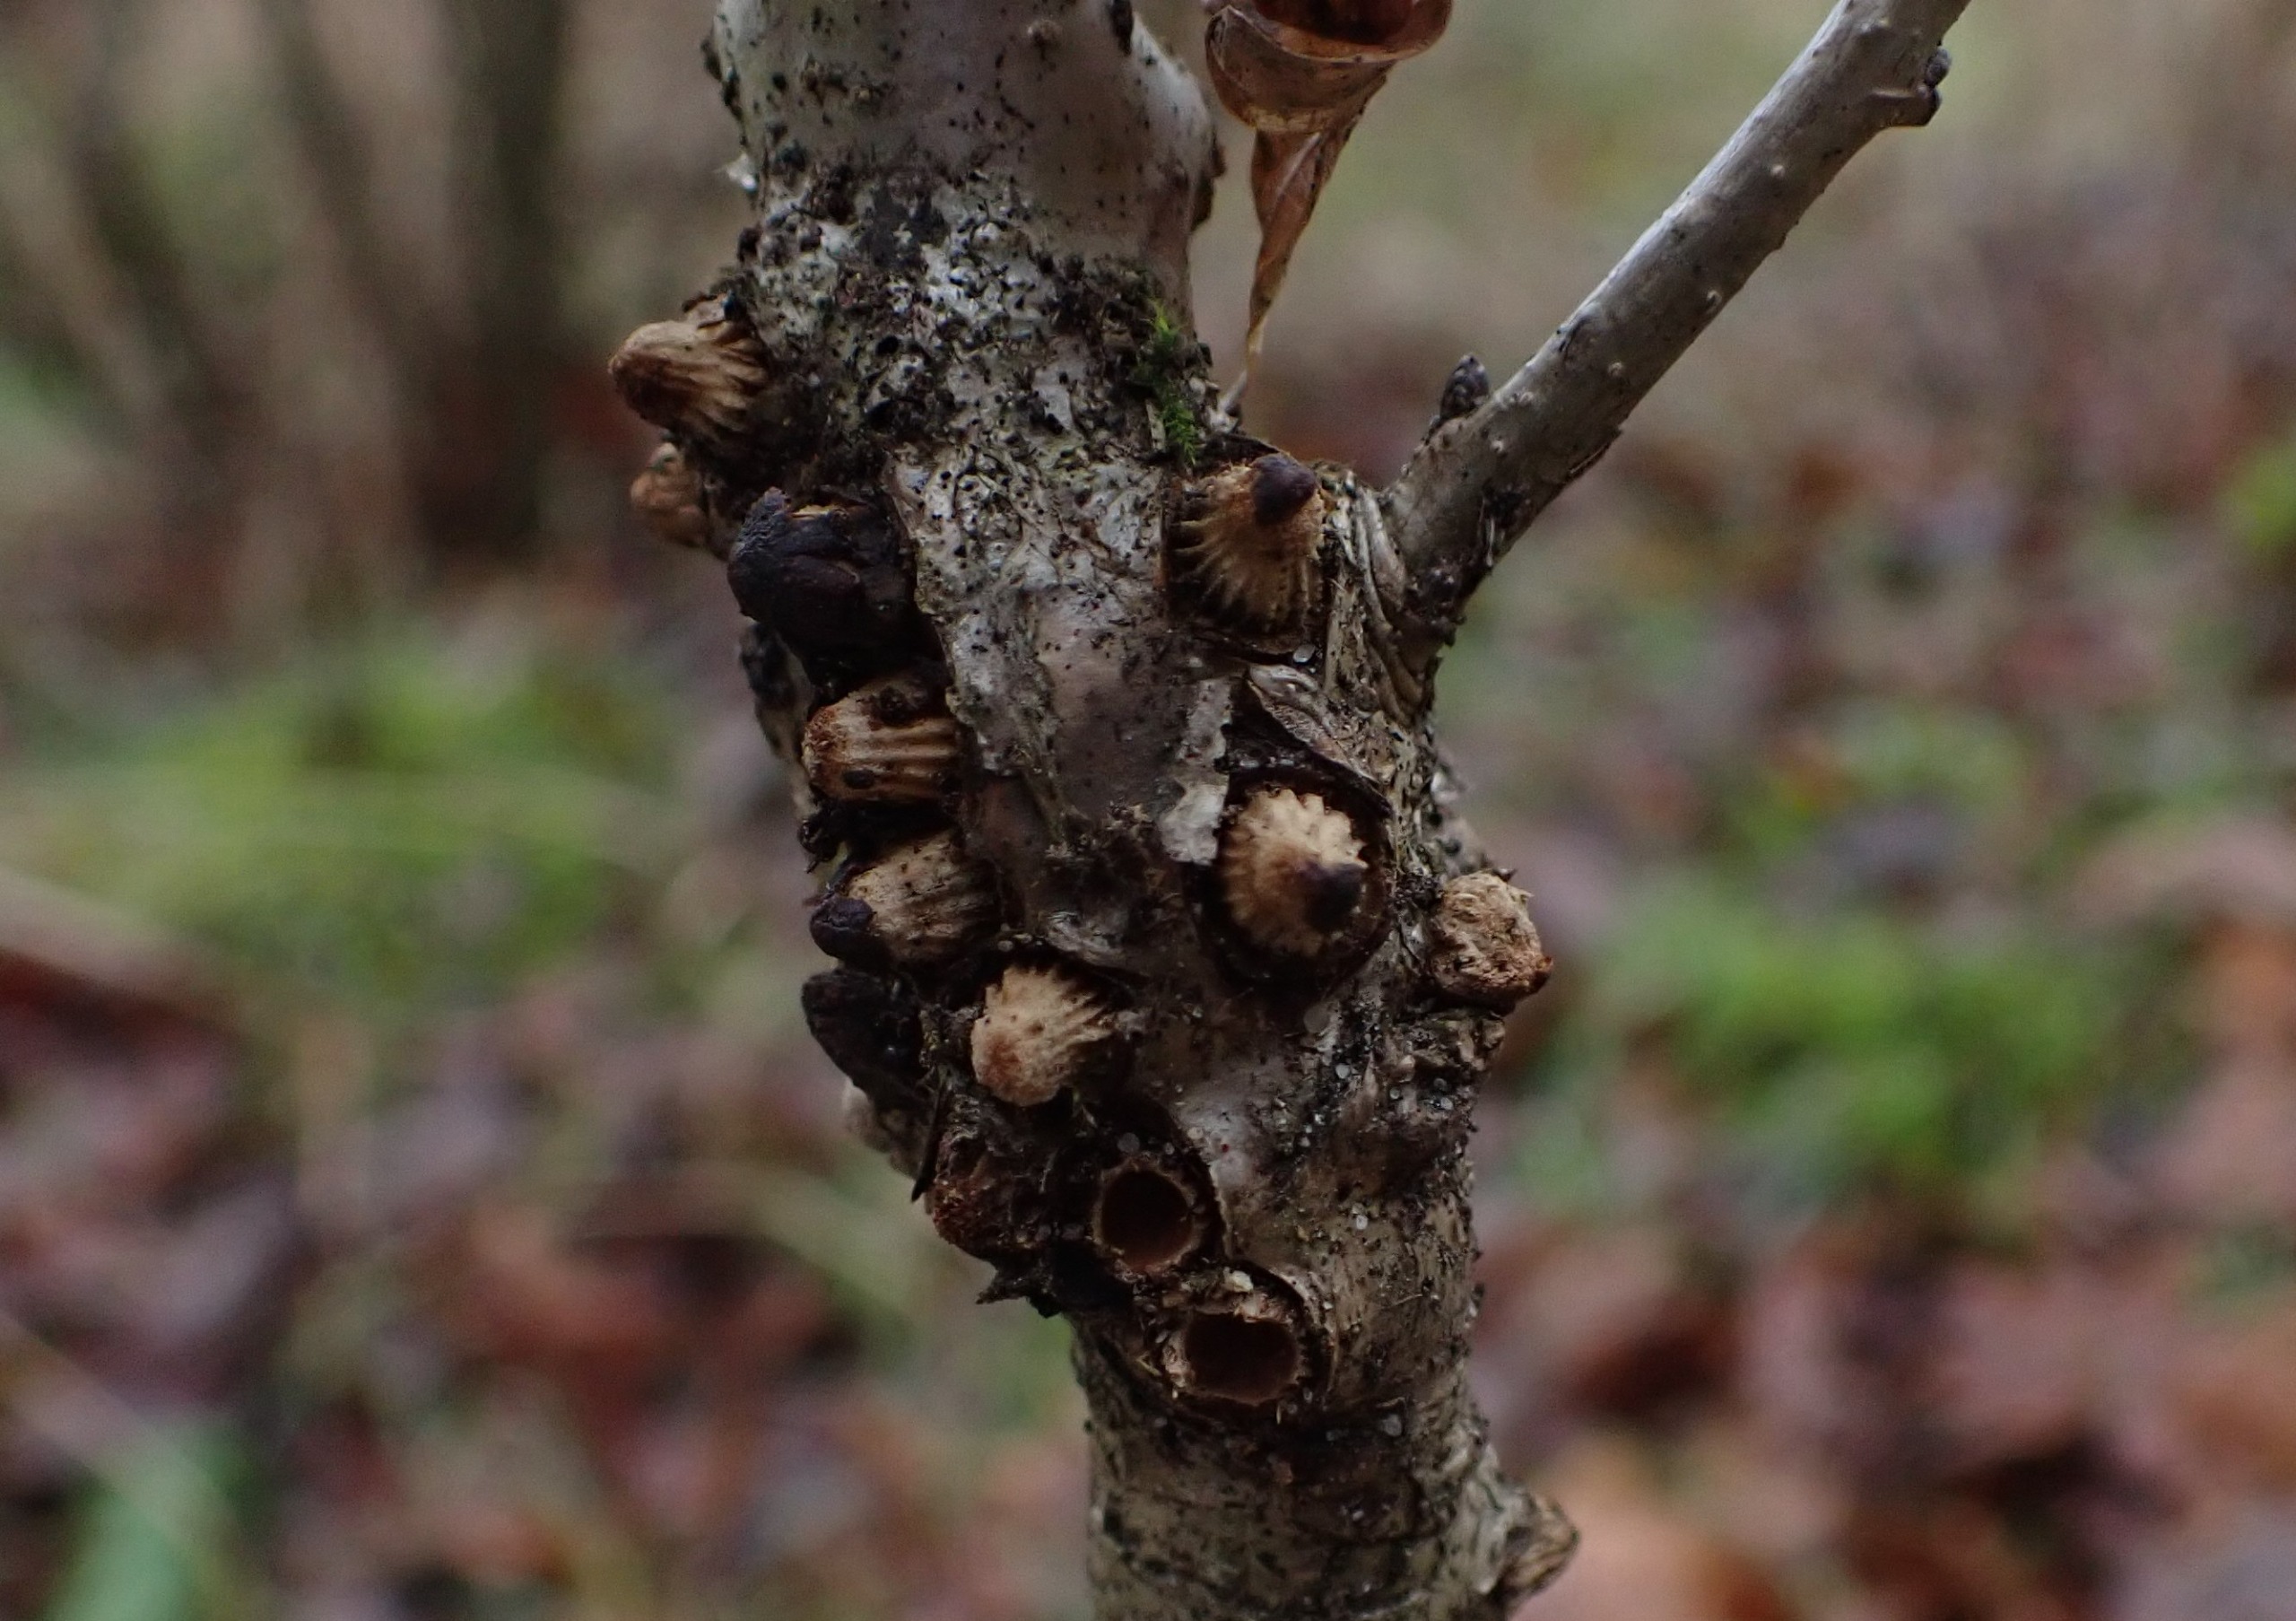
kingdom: Animalia
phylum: Arthropoda
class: Insecta
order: Hymenoptera
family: Cynipidae
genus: Andricus
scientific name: Andricus testaceipes
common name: Barkgalhveps
